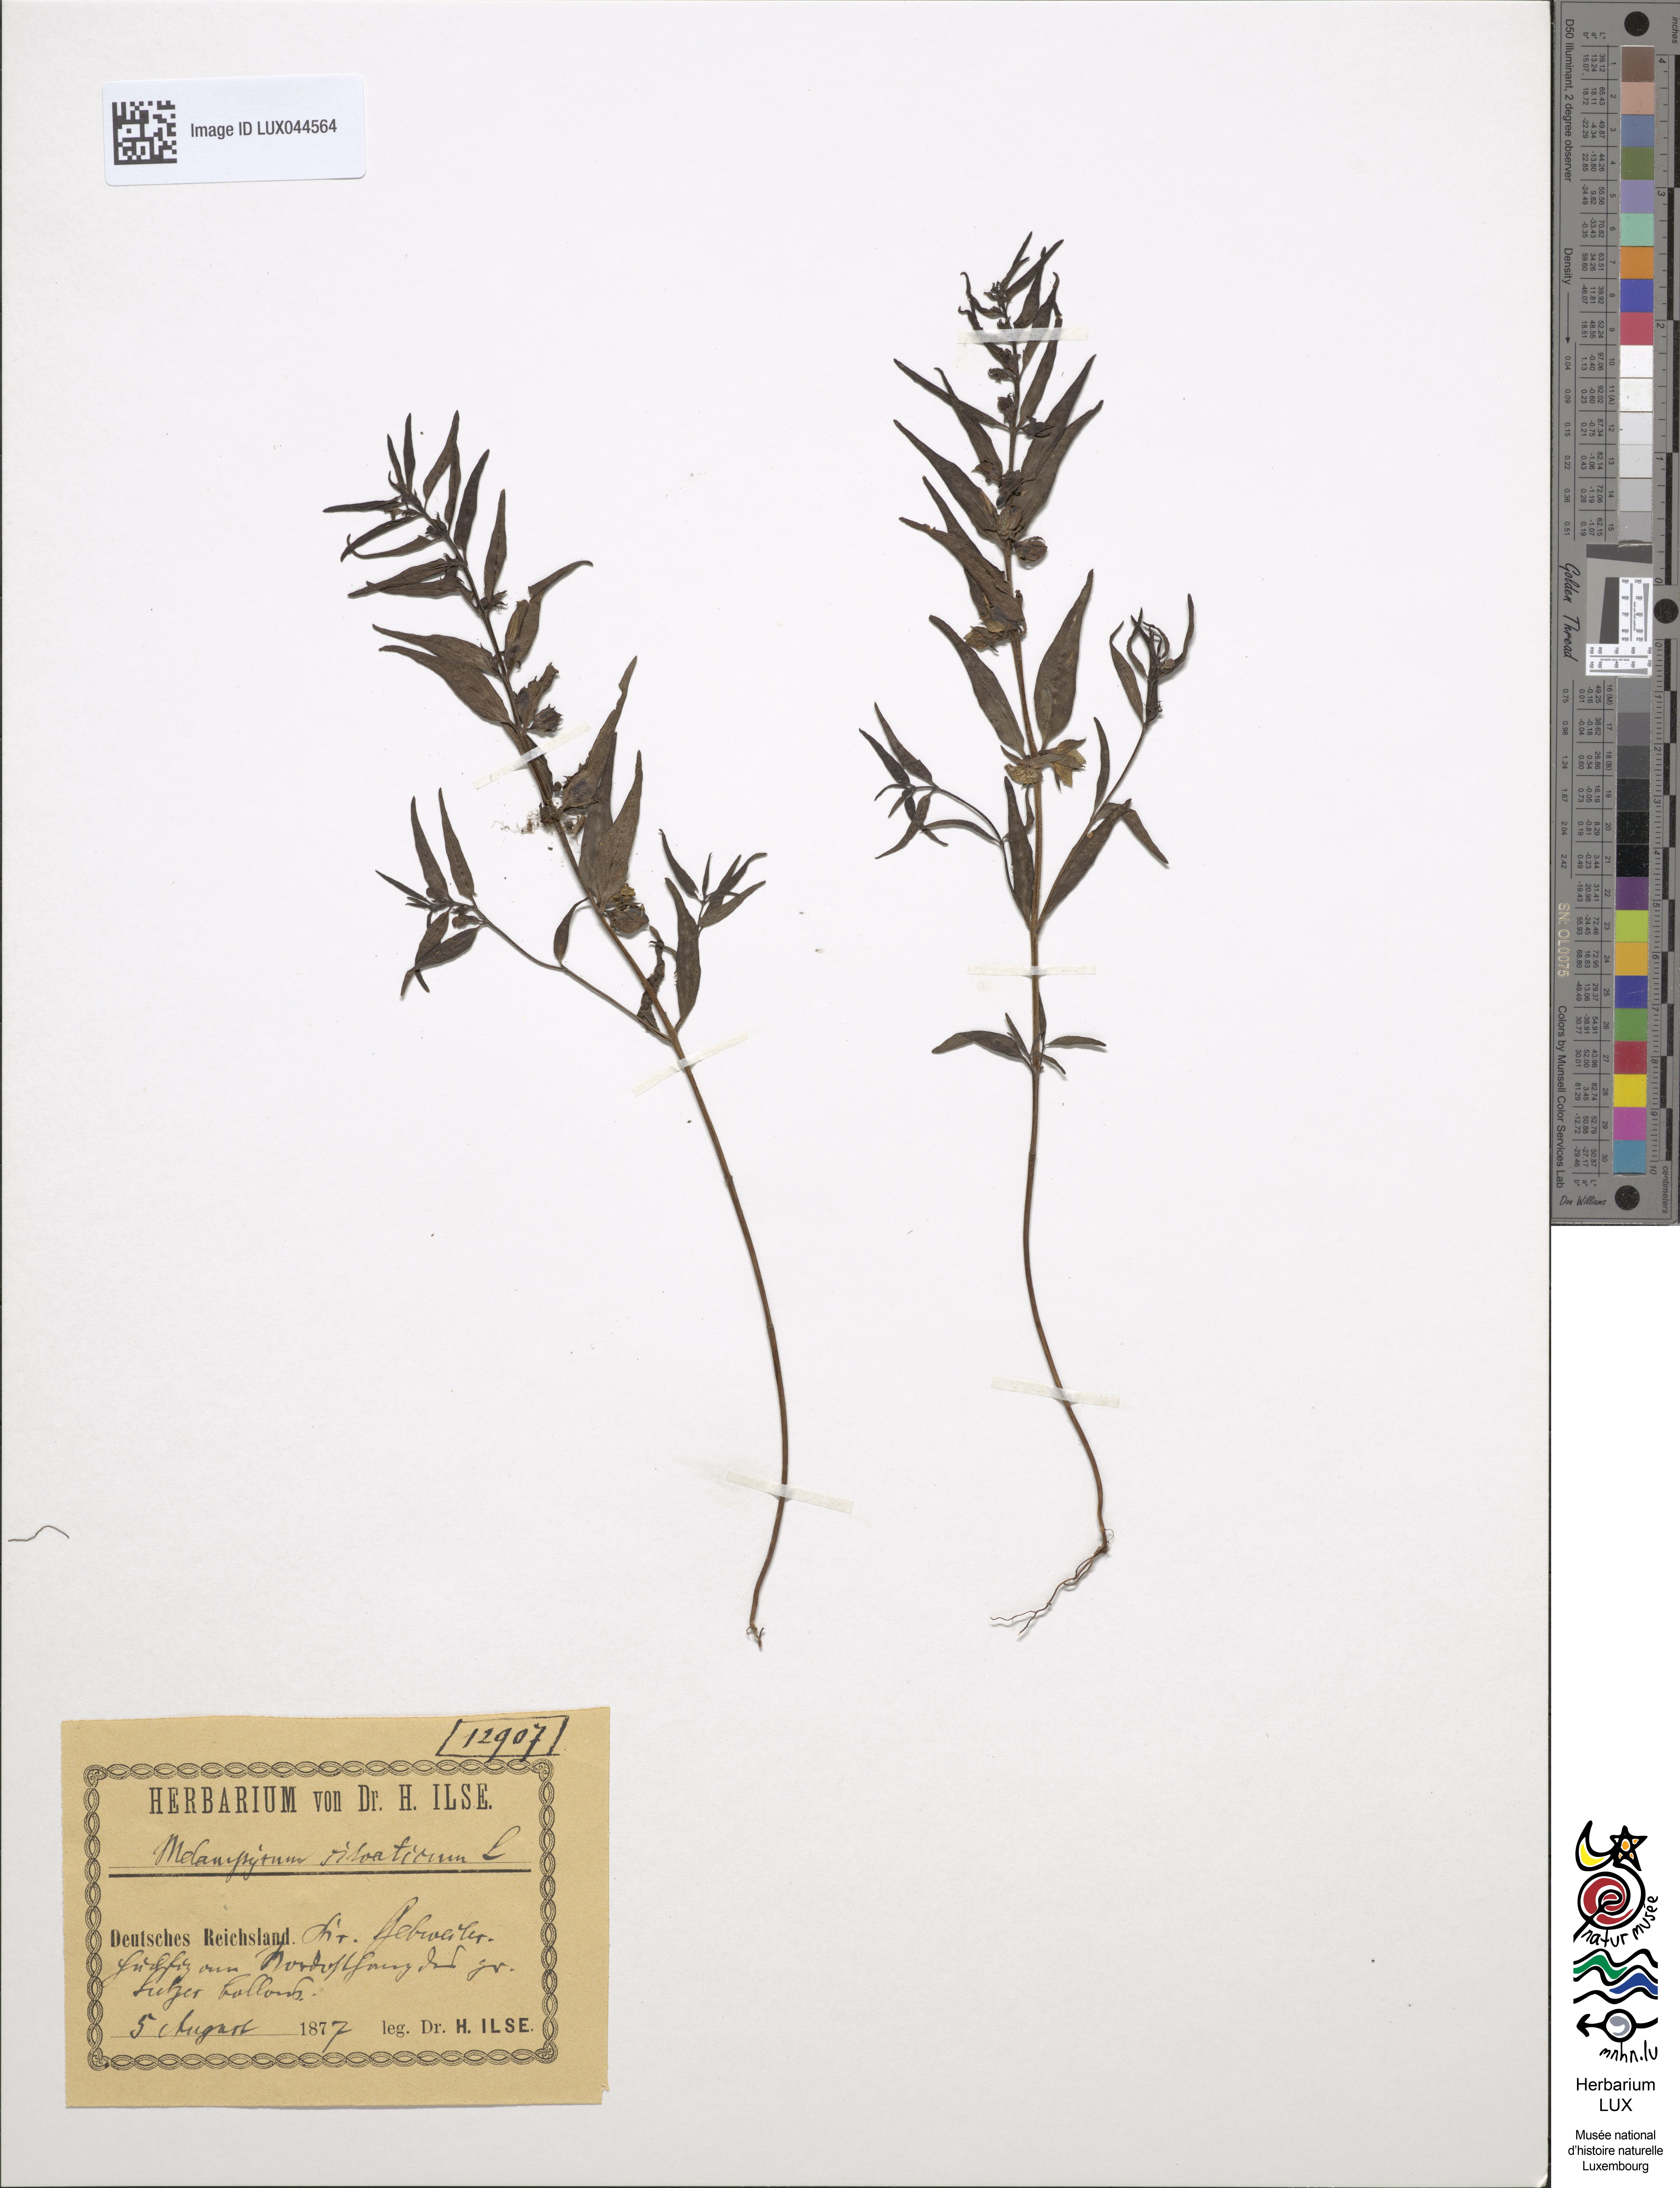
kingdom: Plantae
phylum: Tracheophyta
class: Magnoliopsida
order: Lamiales
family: Orobanchaceae
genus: Melampyrum
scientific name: Melampyrum sylvaticum
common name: Small cow-wheat
